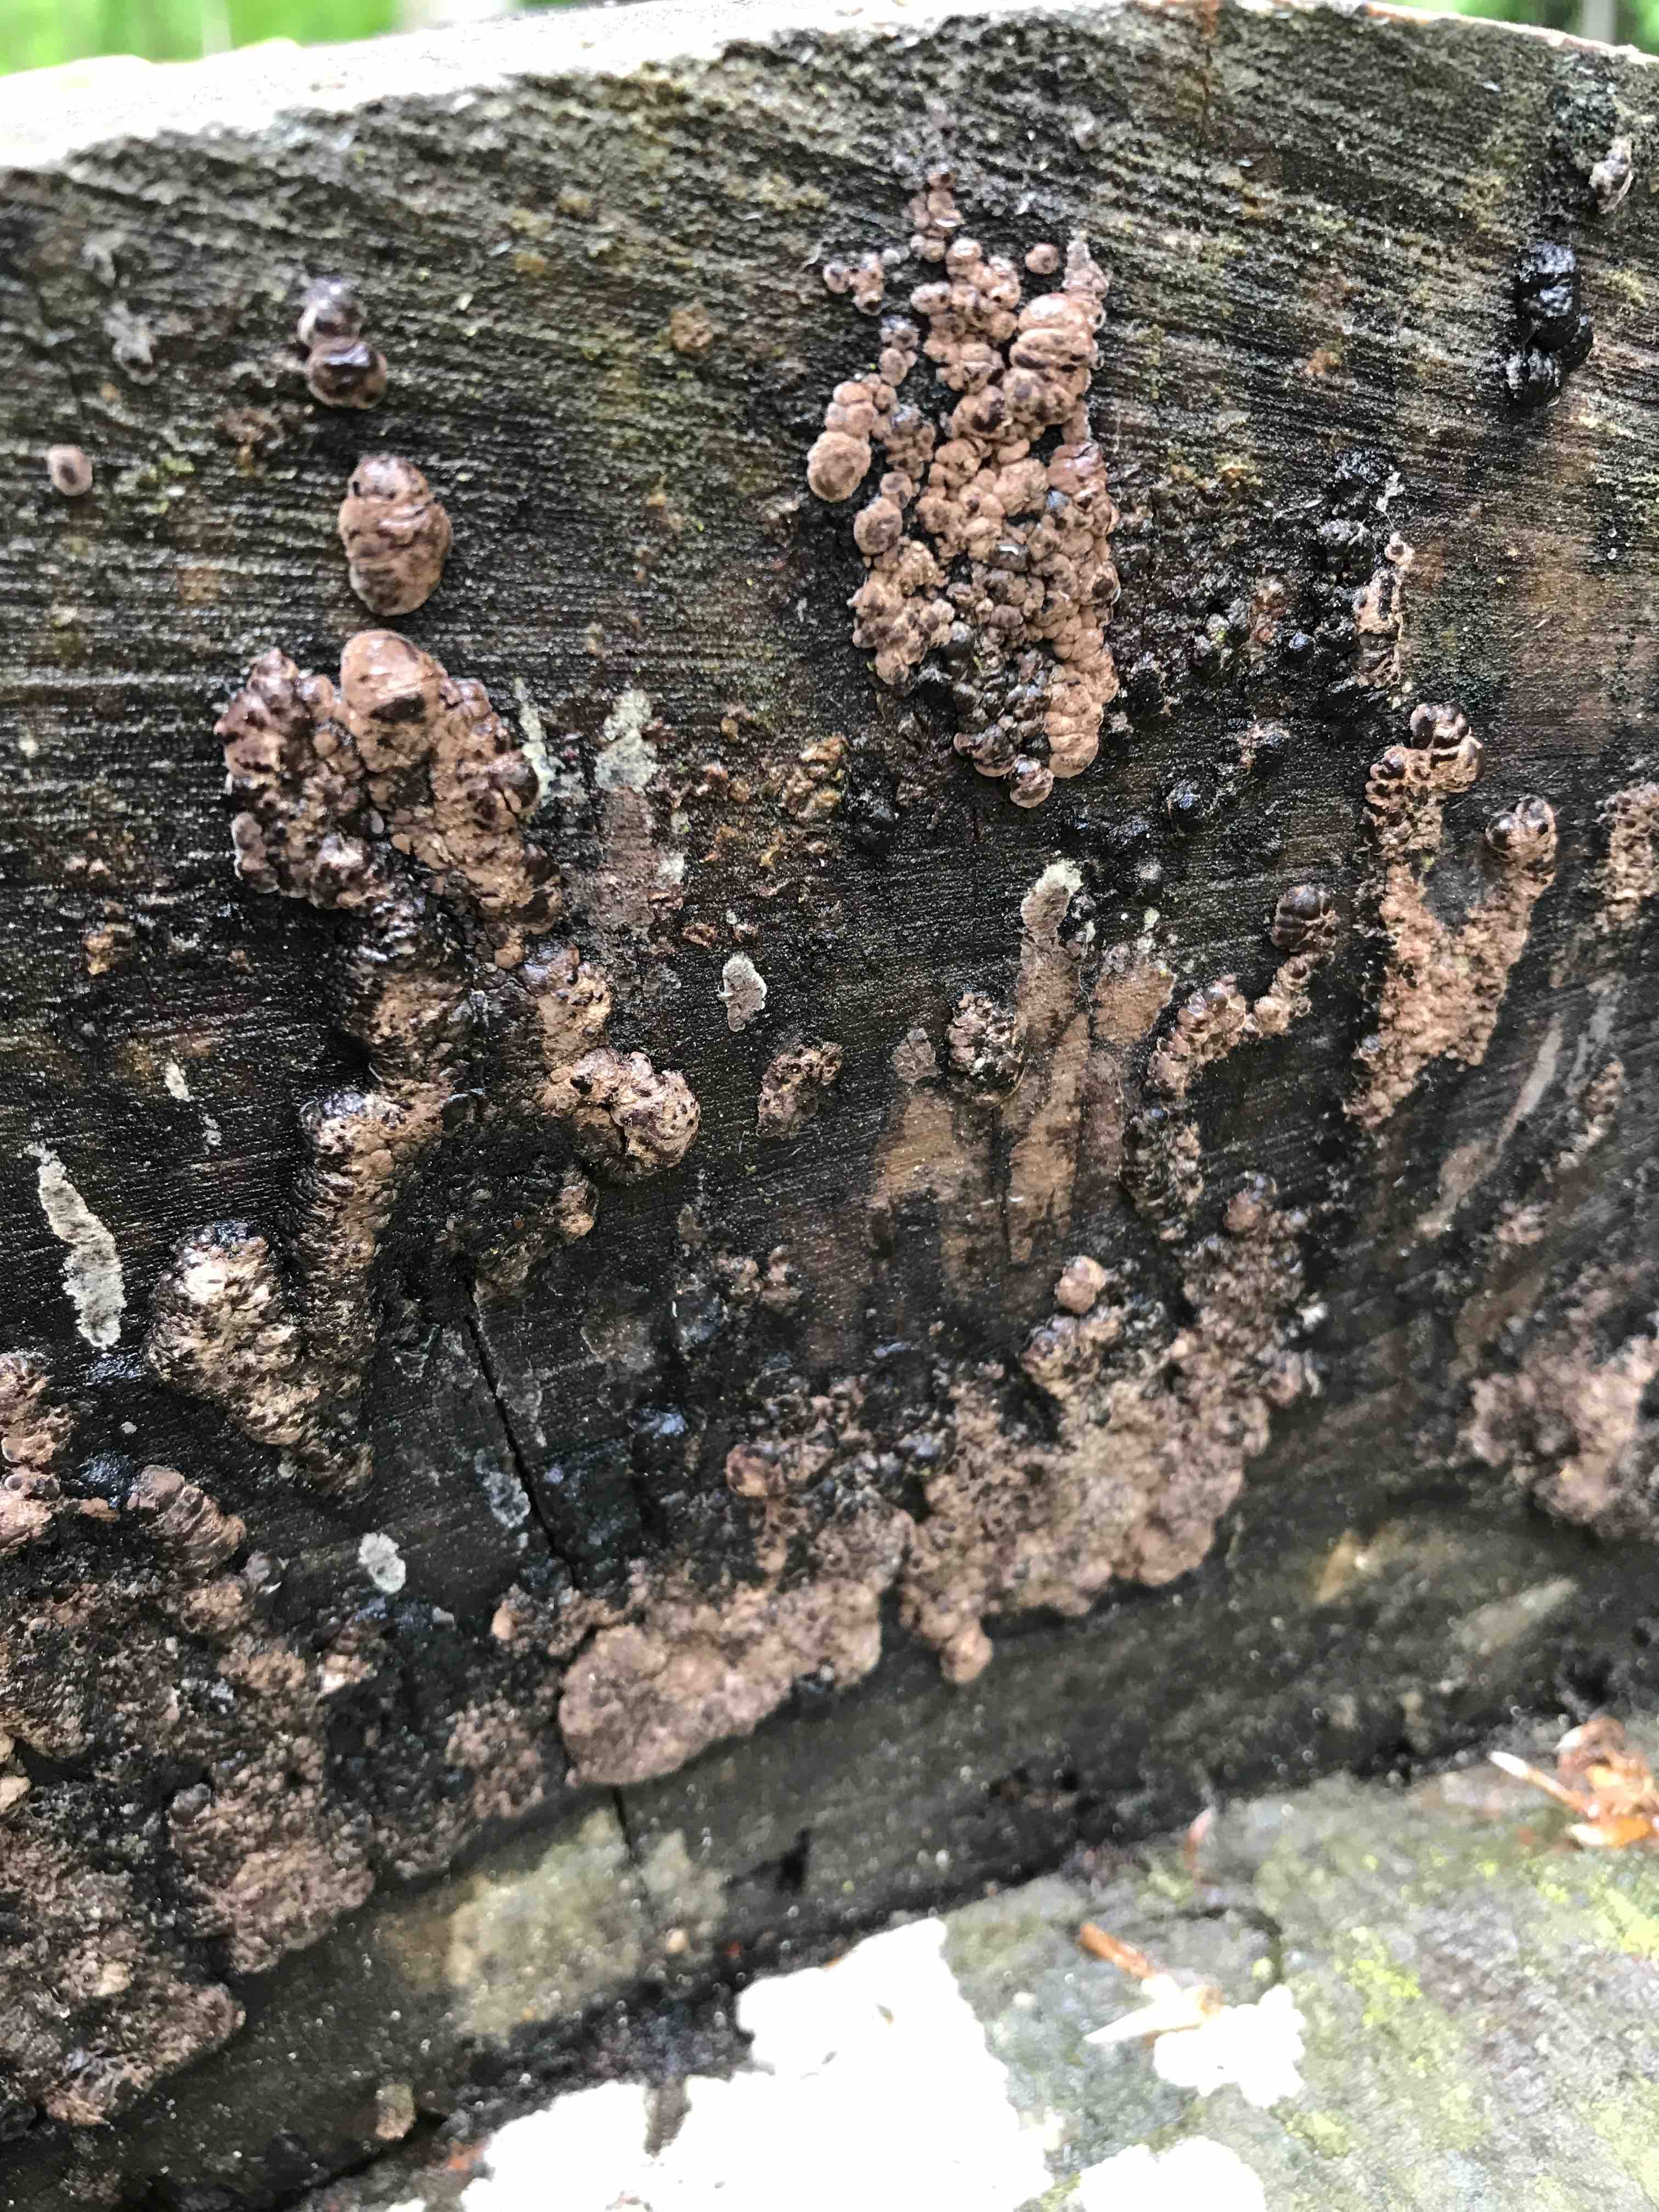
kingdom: Fungi
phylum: Ascomycota
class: Sordariomycetes
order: Xylariales
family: Hypoxylaceae
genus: Jackrogersella
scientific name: Jackrogersella cohaerens
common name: sammenflydende kulbær
